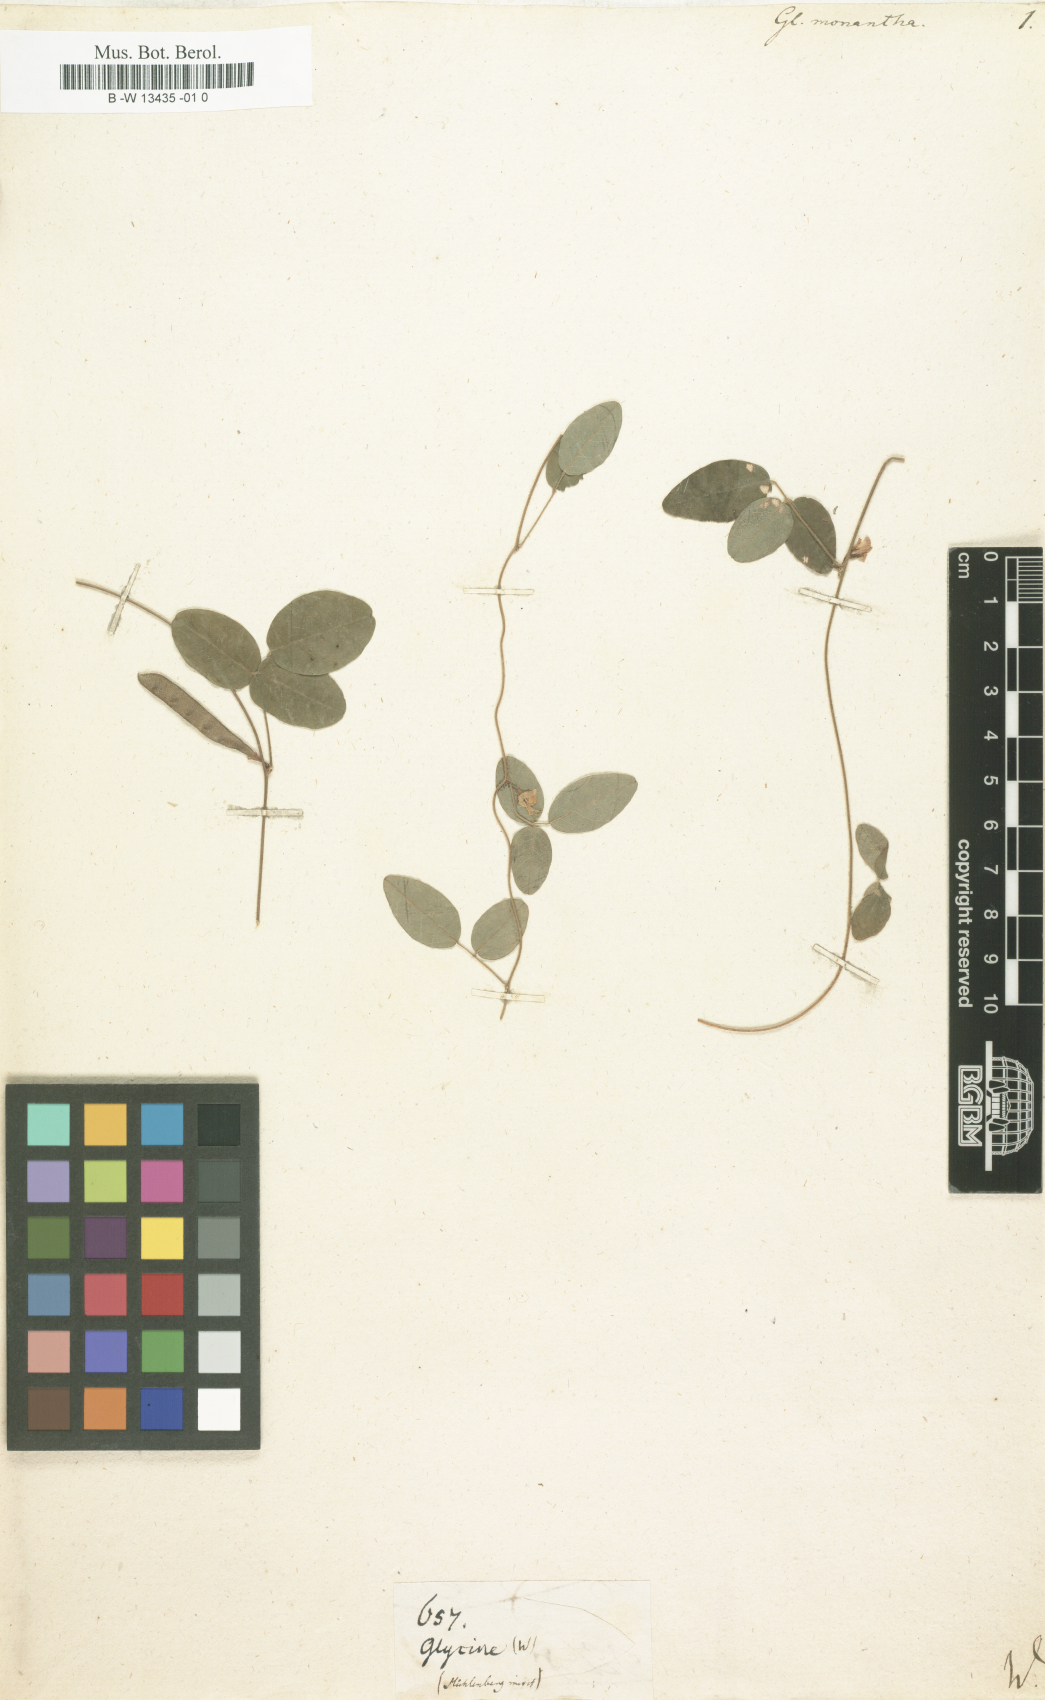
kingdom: Plantae
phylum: Tracheophyta
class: Magnoliopsida
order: Fabales
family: Fabaceae
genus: Glycine
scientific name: Glycine monantha
